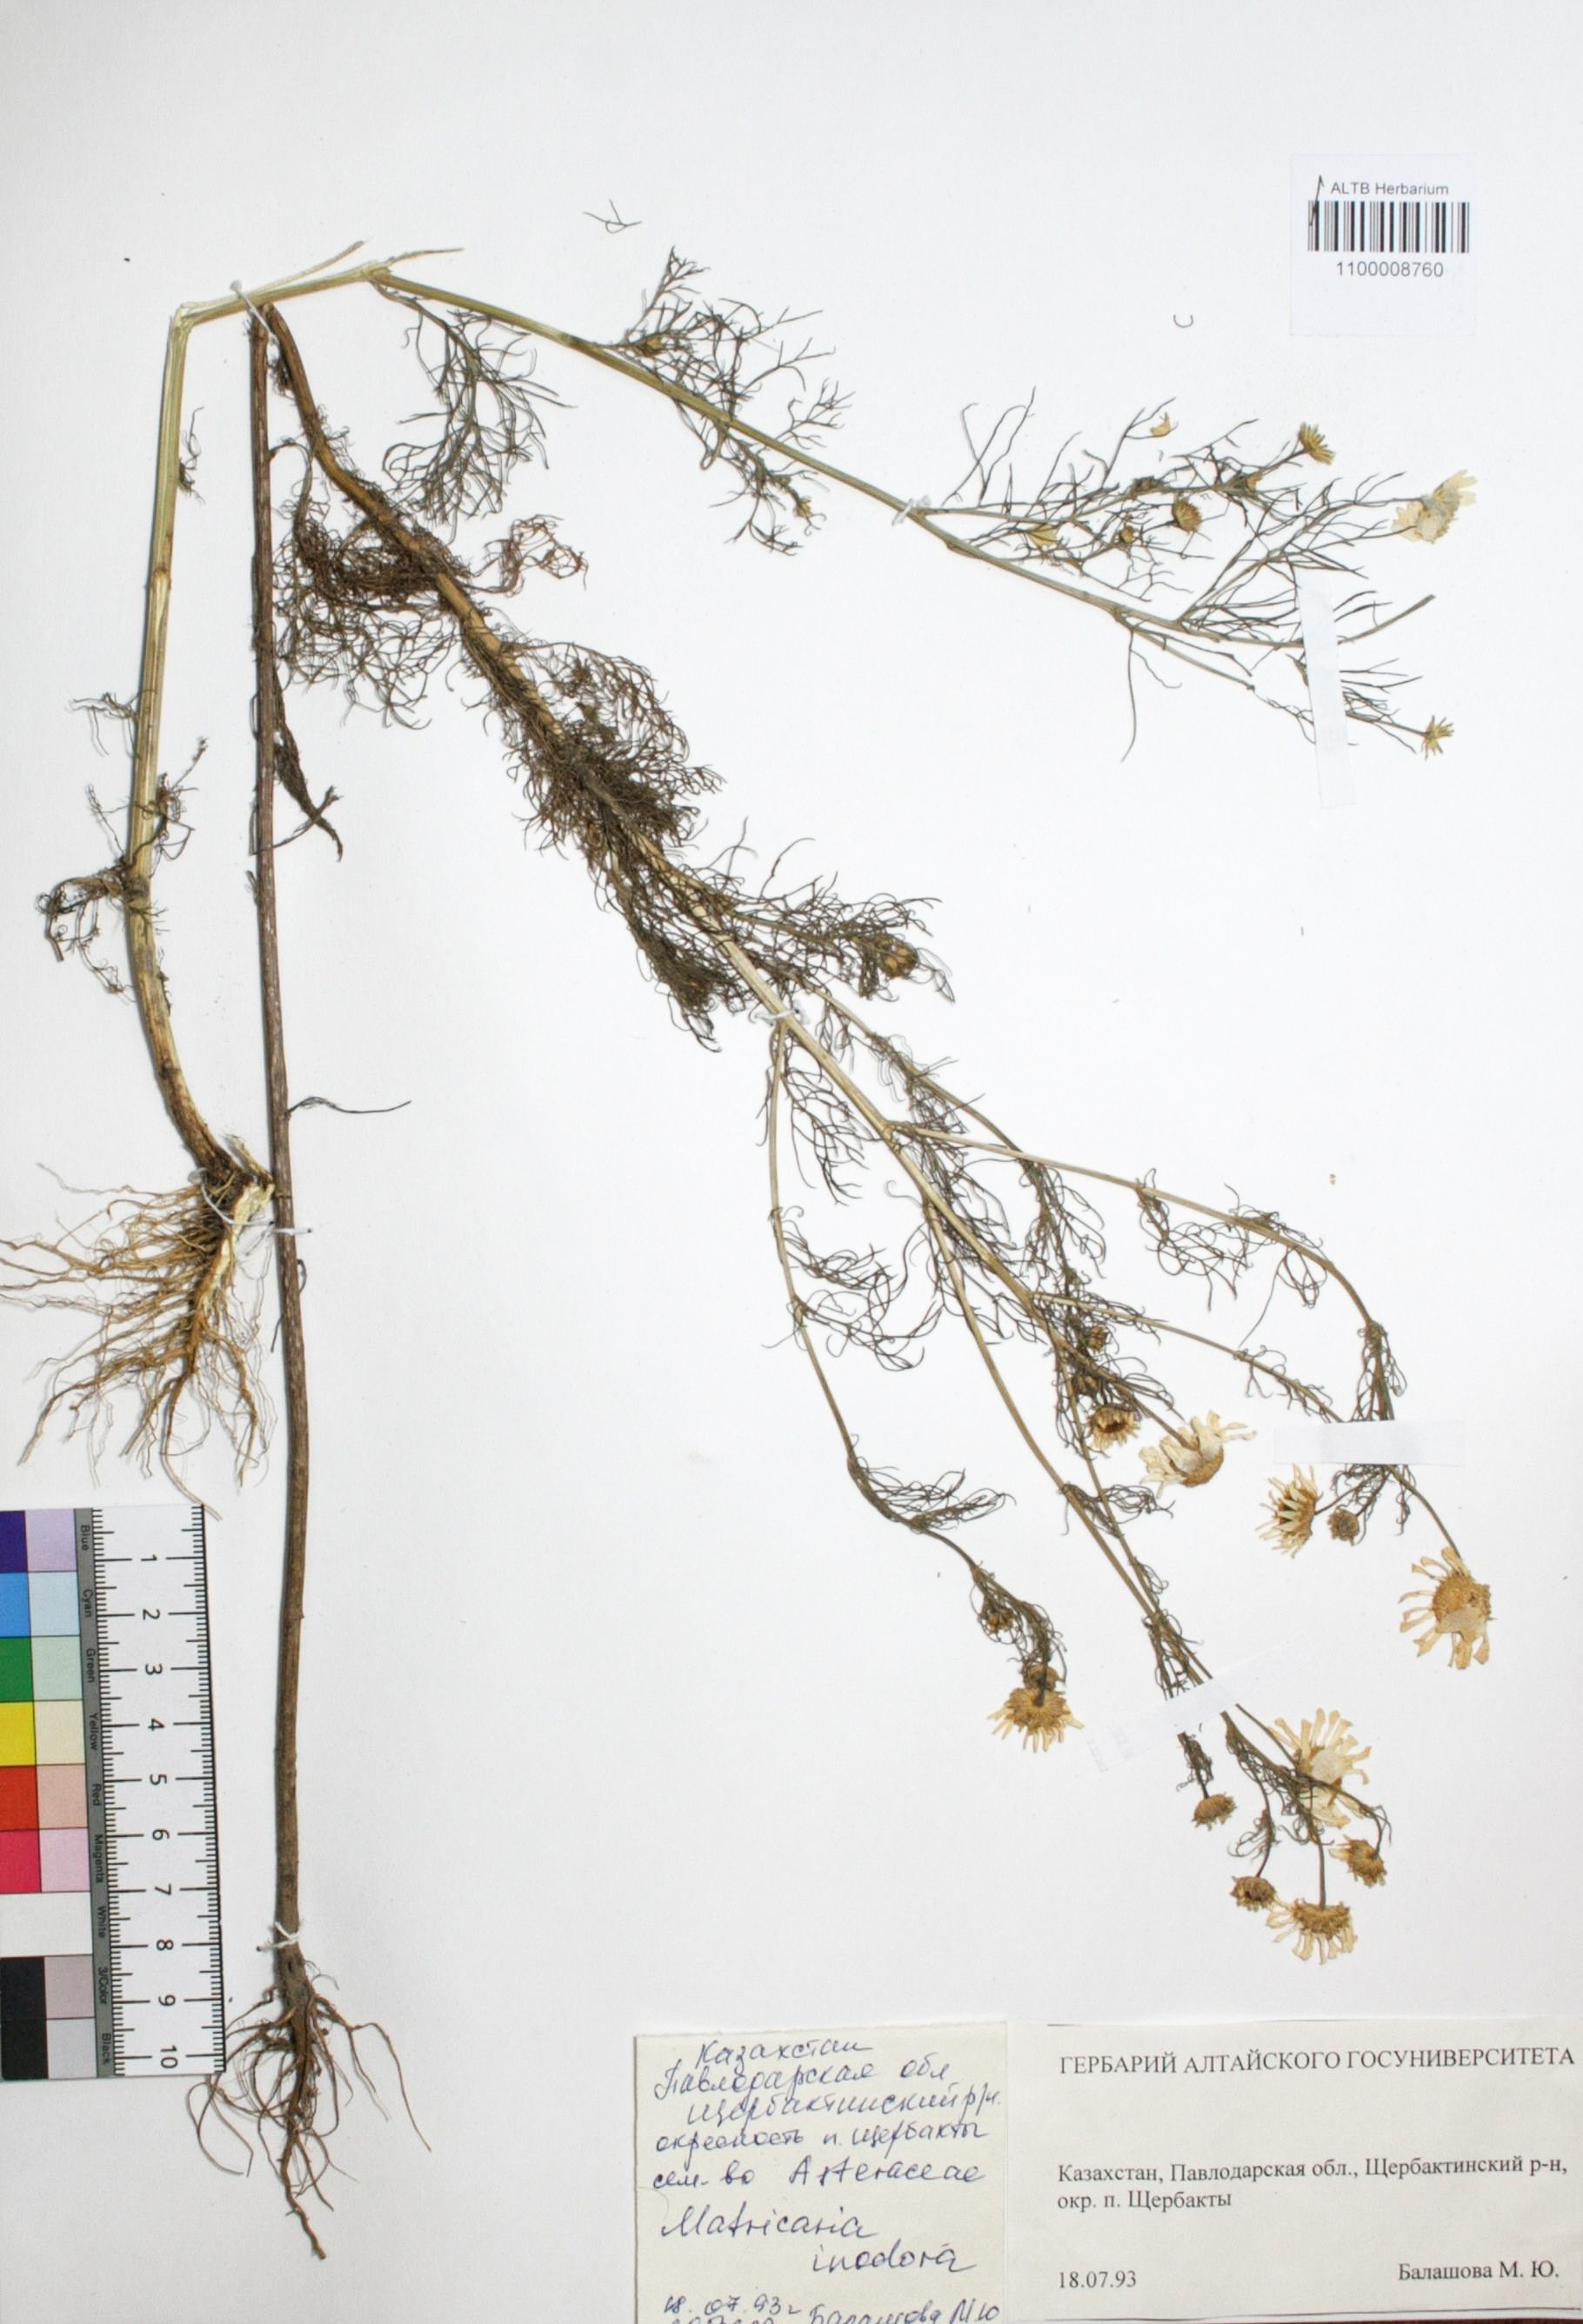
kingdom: Plantae
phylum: Tracheophyta
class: Magnoliopsida
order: Asterales
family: Asteraceae
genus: Tripleurospermum
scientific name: Tripleurospermum inodorum
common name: Scentless mayweed
